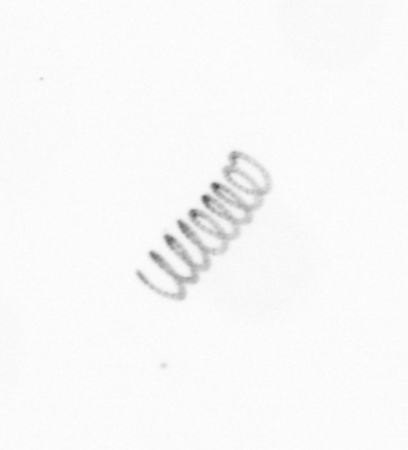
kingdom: Chromista
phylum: Ochrophyta
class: Bacillariophyceae
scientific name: Bacillariophyceae
